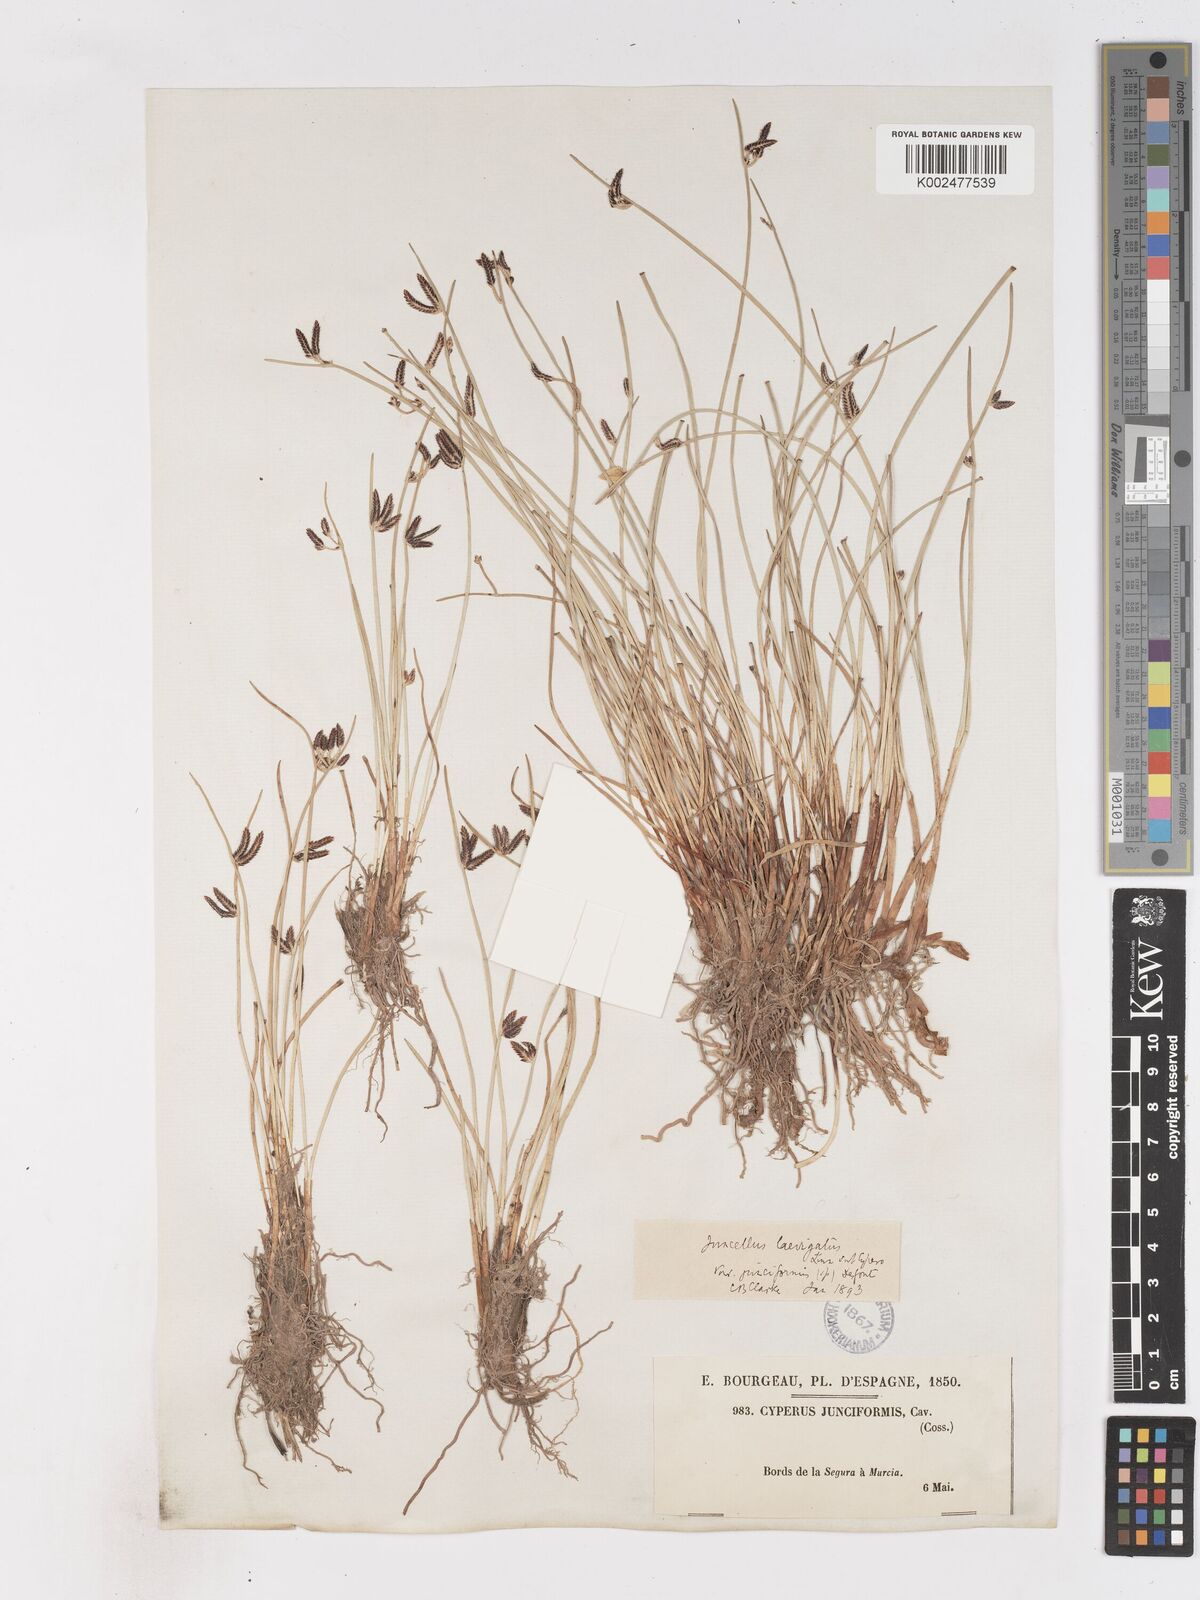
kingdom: Plantae
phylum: Tracheophyta
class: Liliopsida
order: Poales
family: Cyperaceae
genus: Cyperus
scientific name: Cyperus laevigatus
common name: Smooth flat sedge
